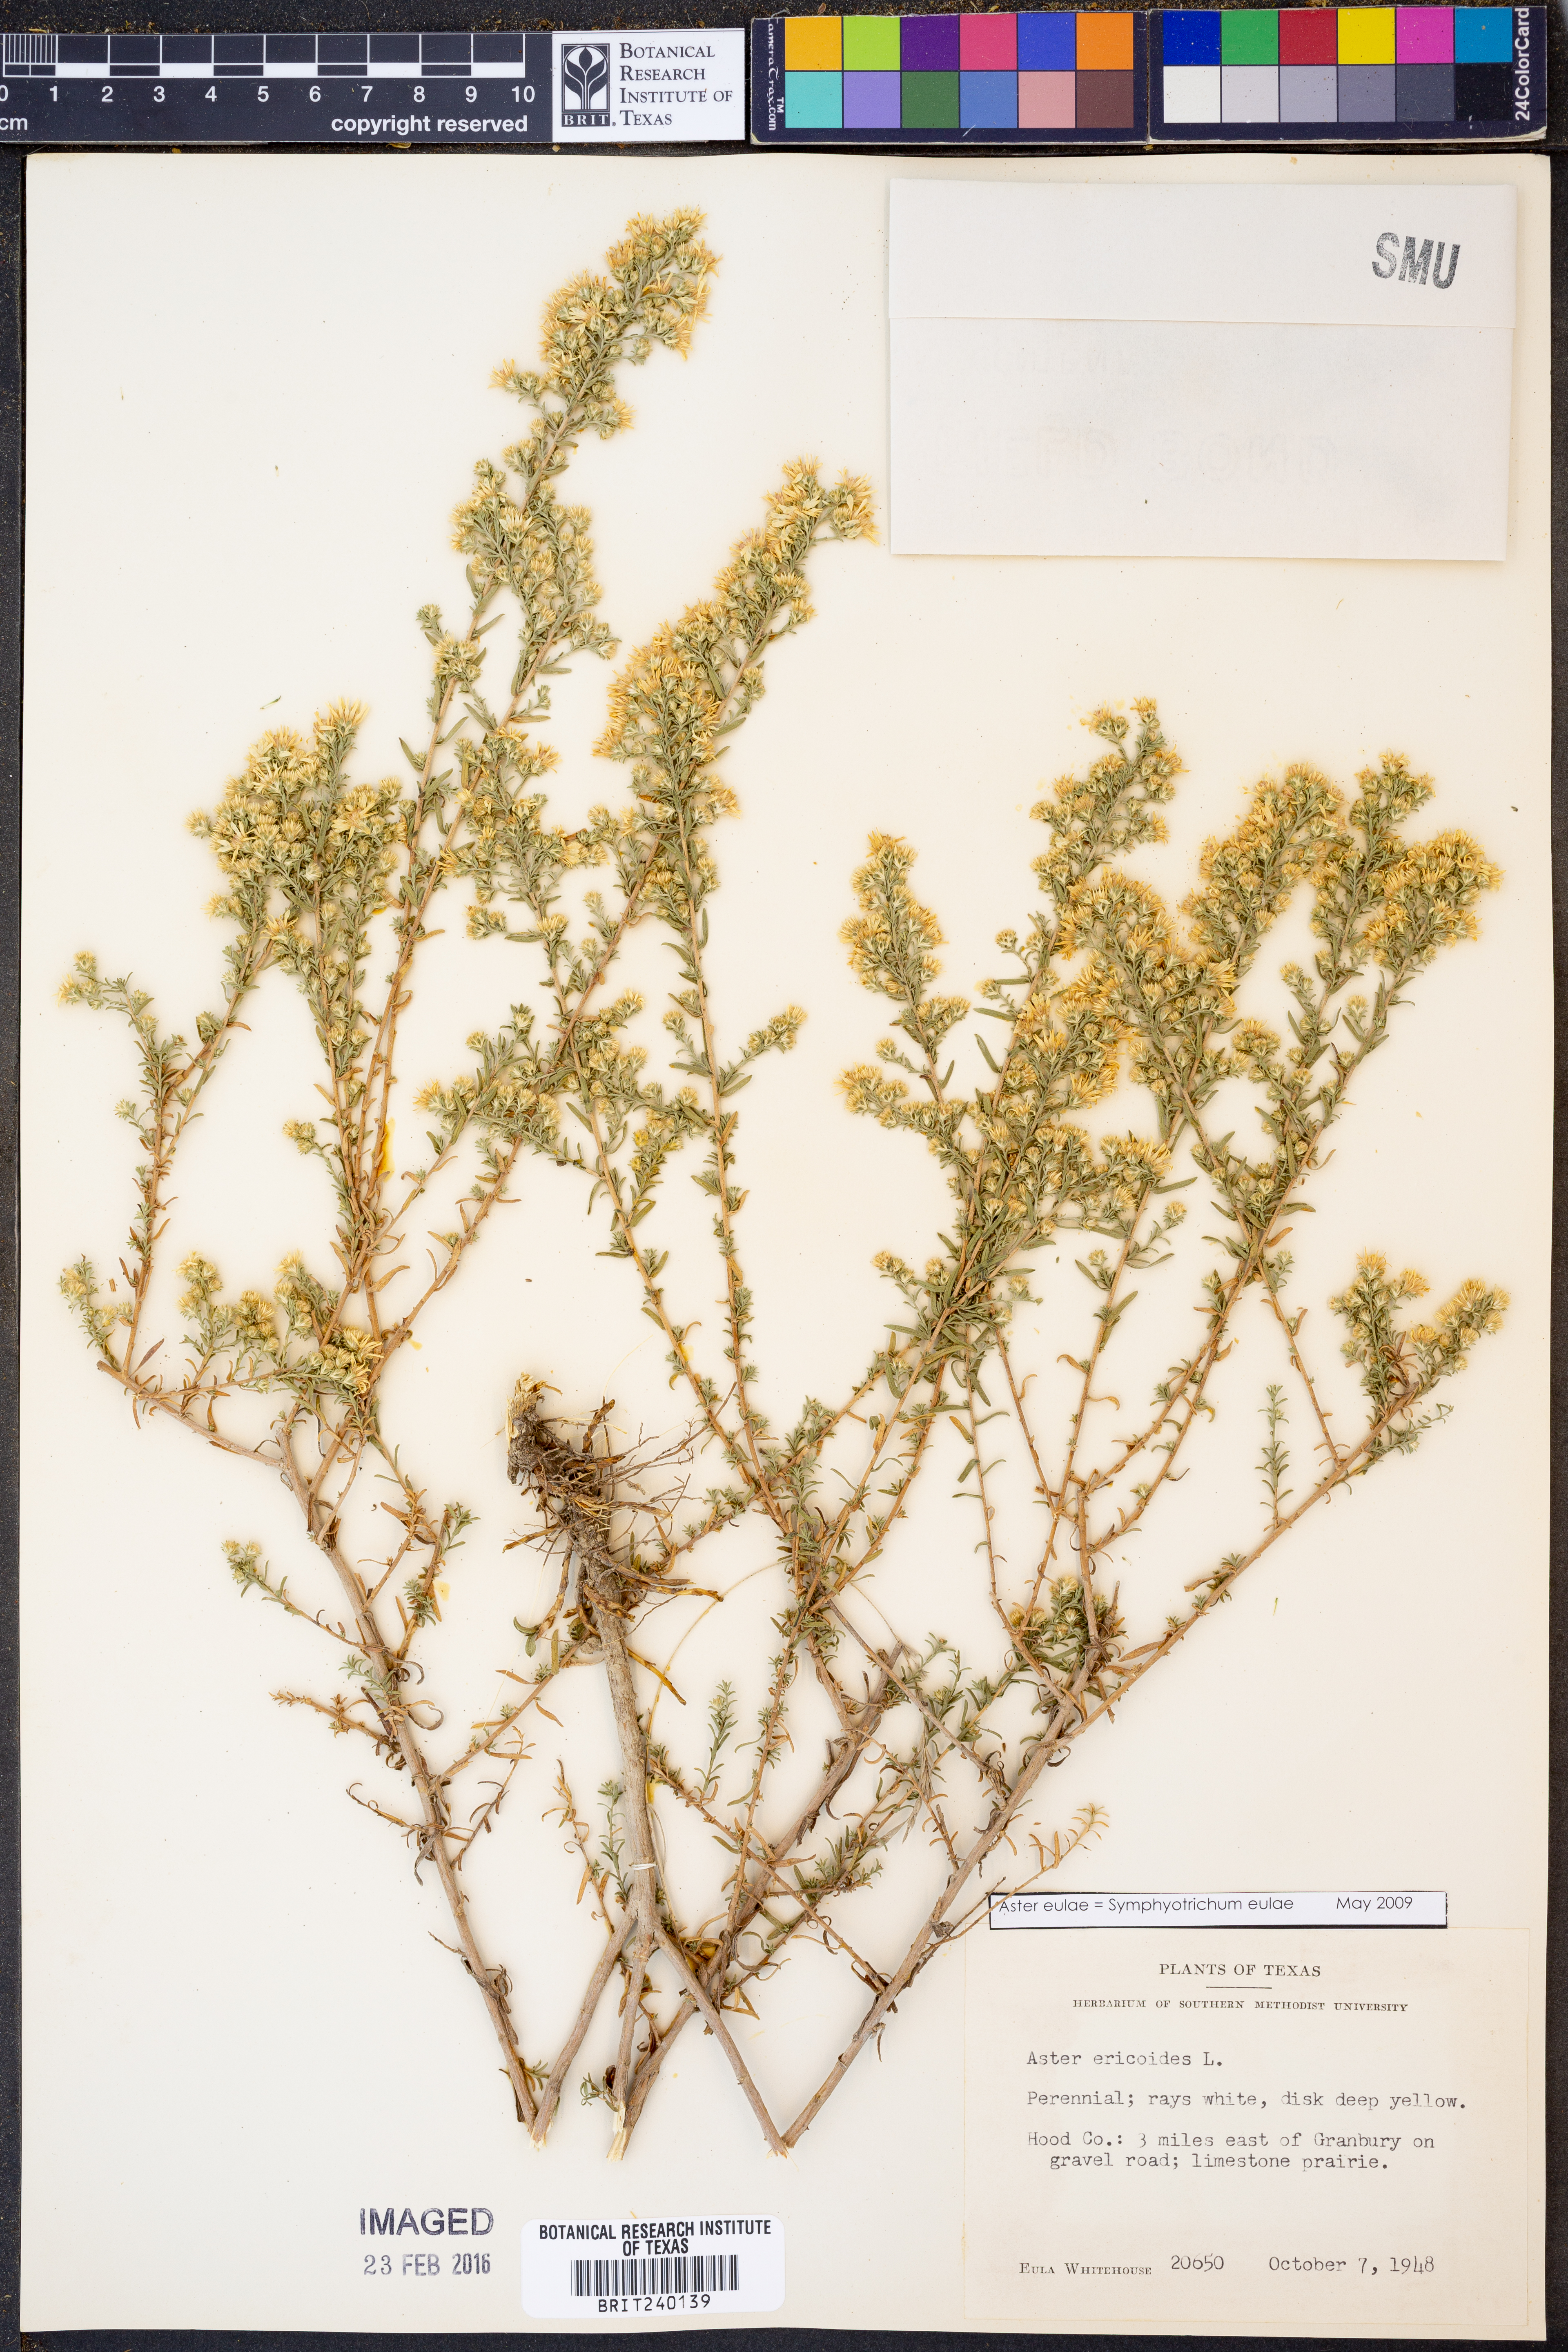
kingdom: Plantae
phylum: Tracheophyta
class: Magnoliopsida
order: Asterales
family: Asteraceae
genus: Symphyotrichum
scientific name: Symphyotrichum eulae
